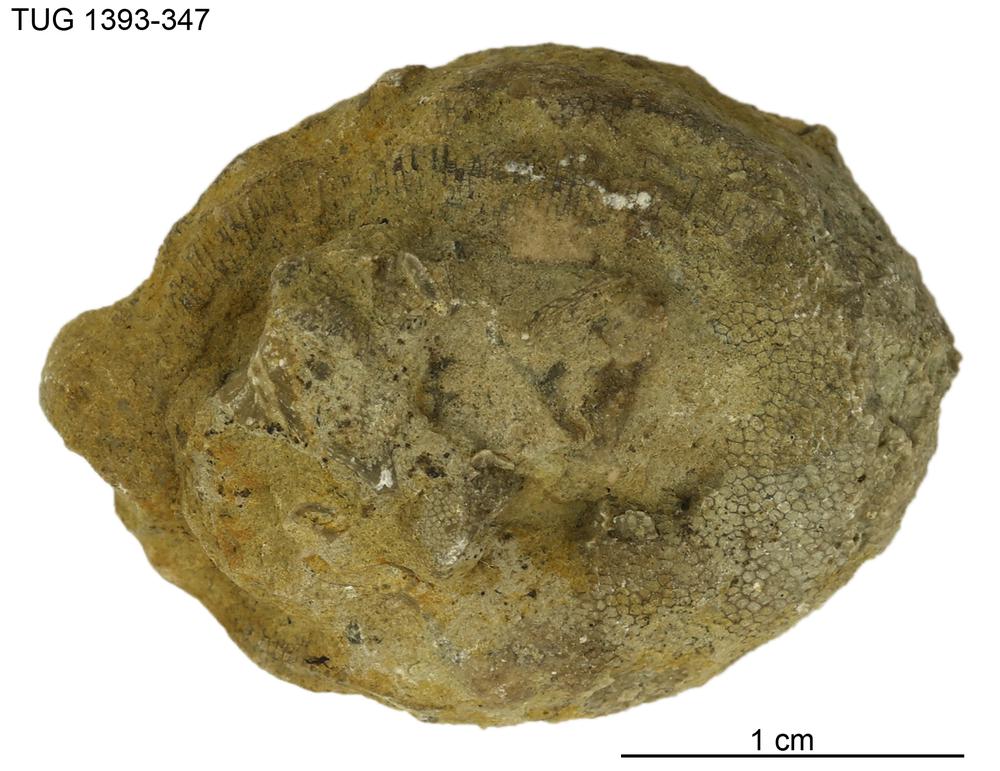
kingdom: Animalia
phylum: Bryozoa
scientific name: Bryozoa
